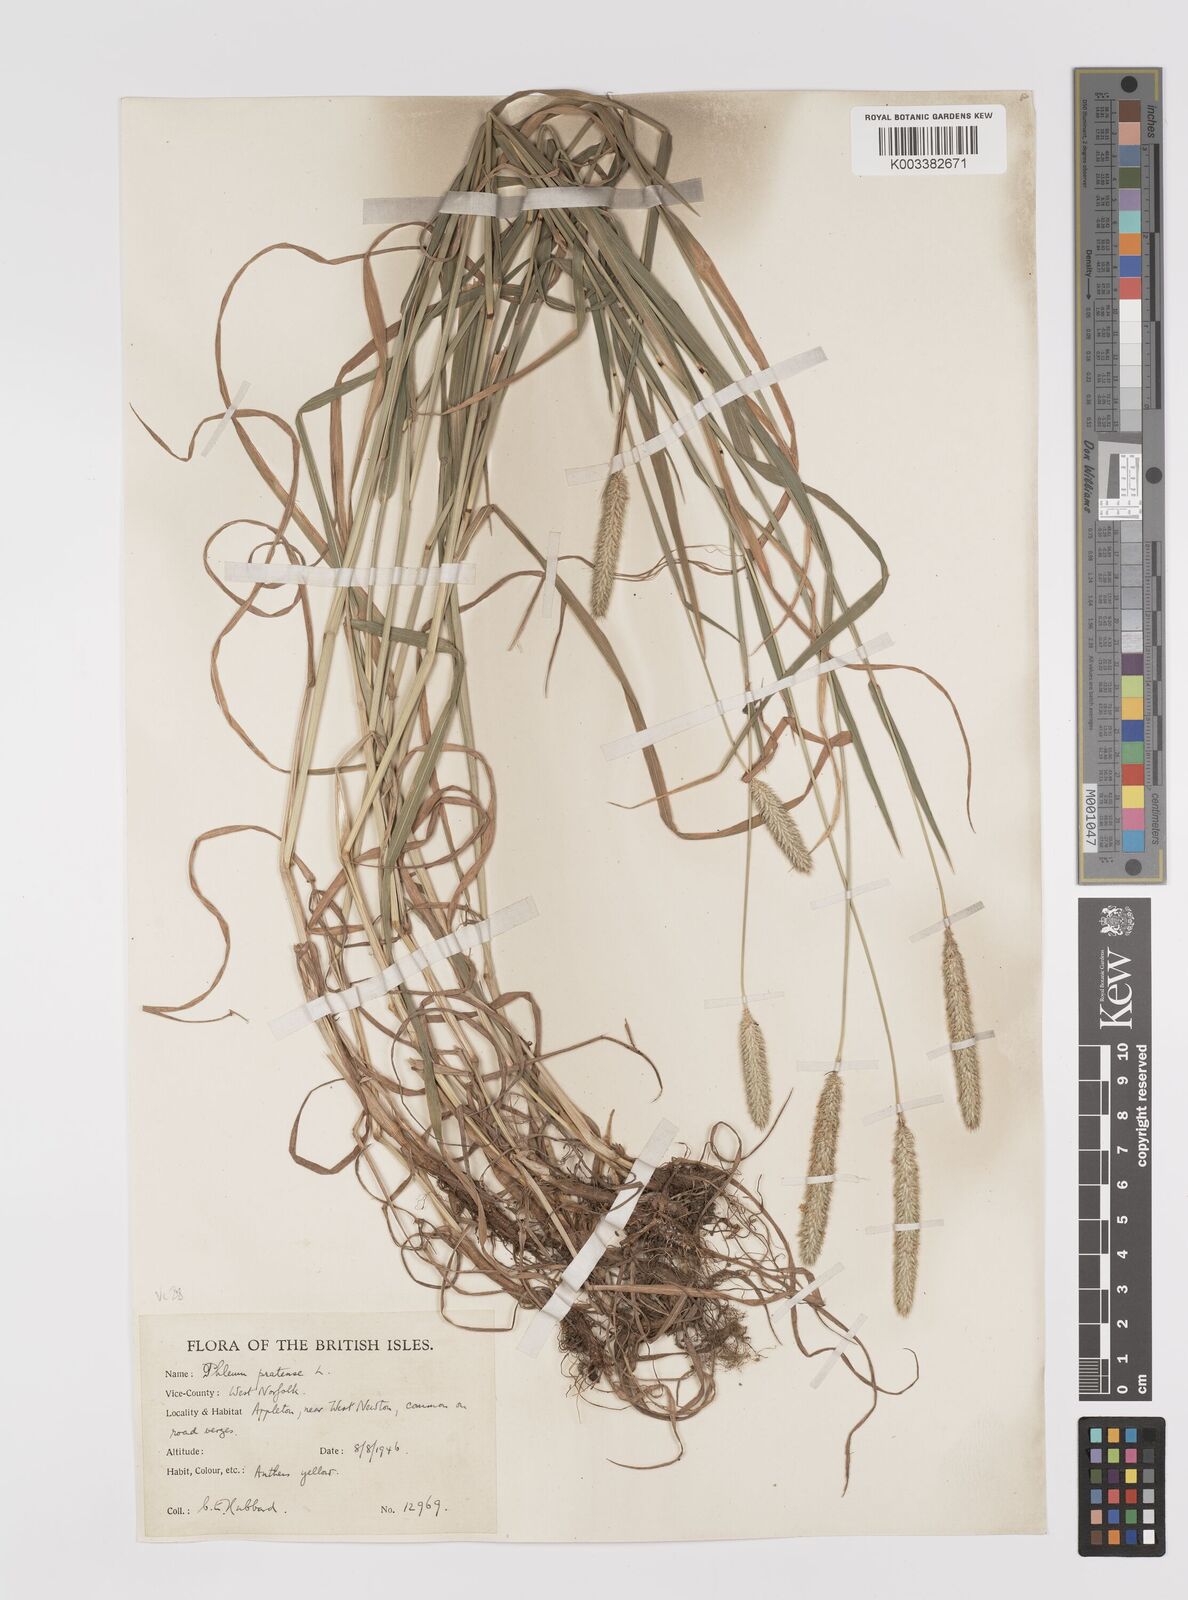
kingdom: Plantae
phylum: Tracheophyta
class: Liliopsida
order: Poales
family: Poaceae
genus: Phleum
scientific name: Phleum pratense
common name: Timothy grass
